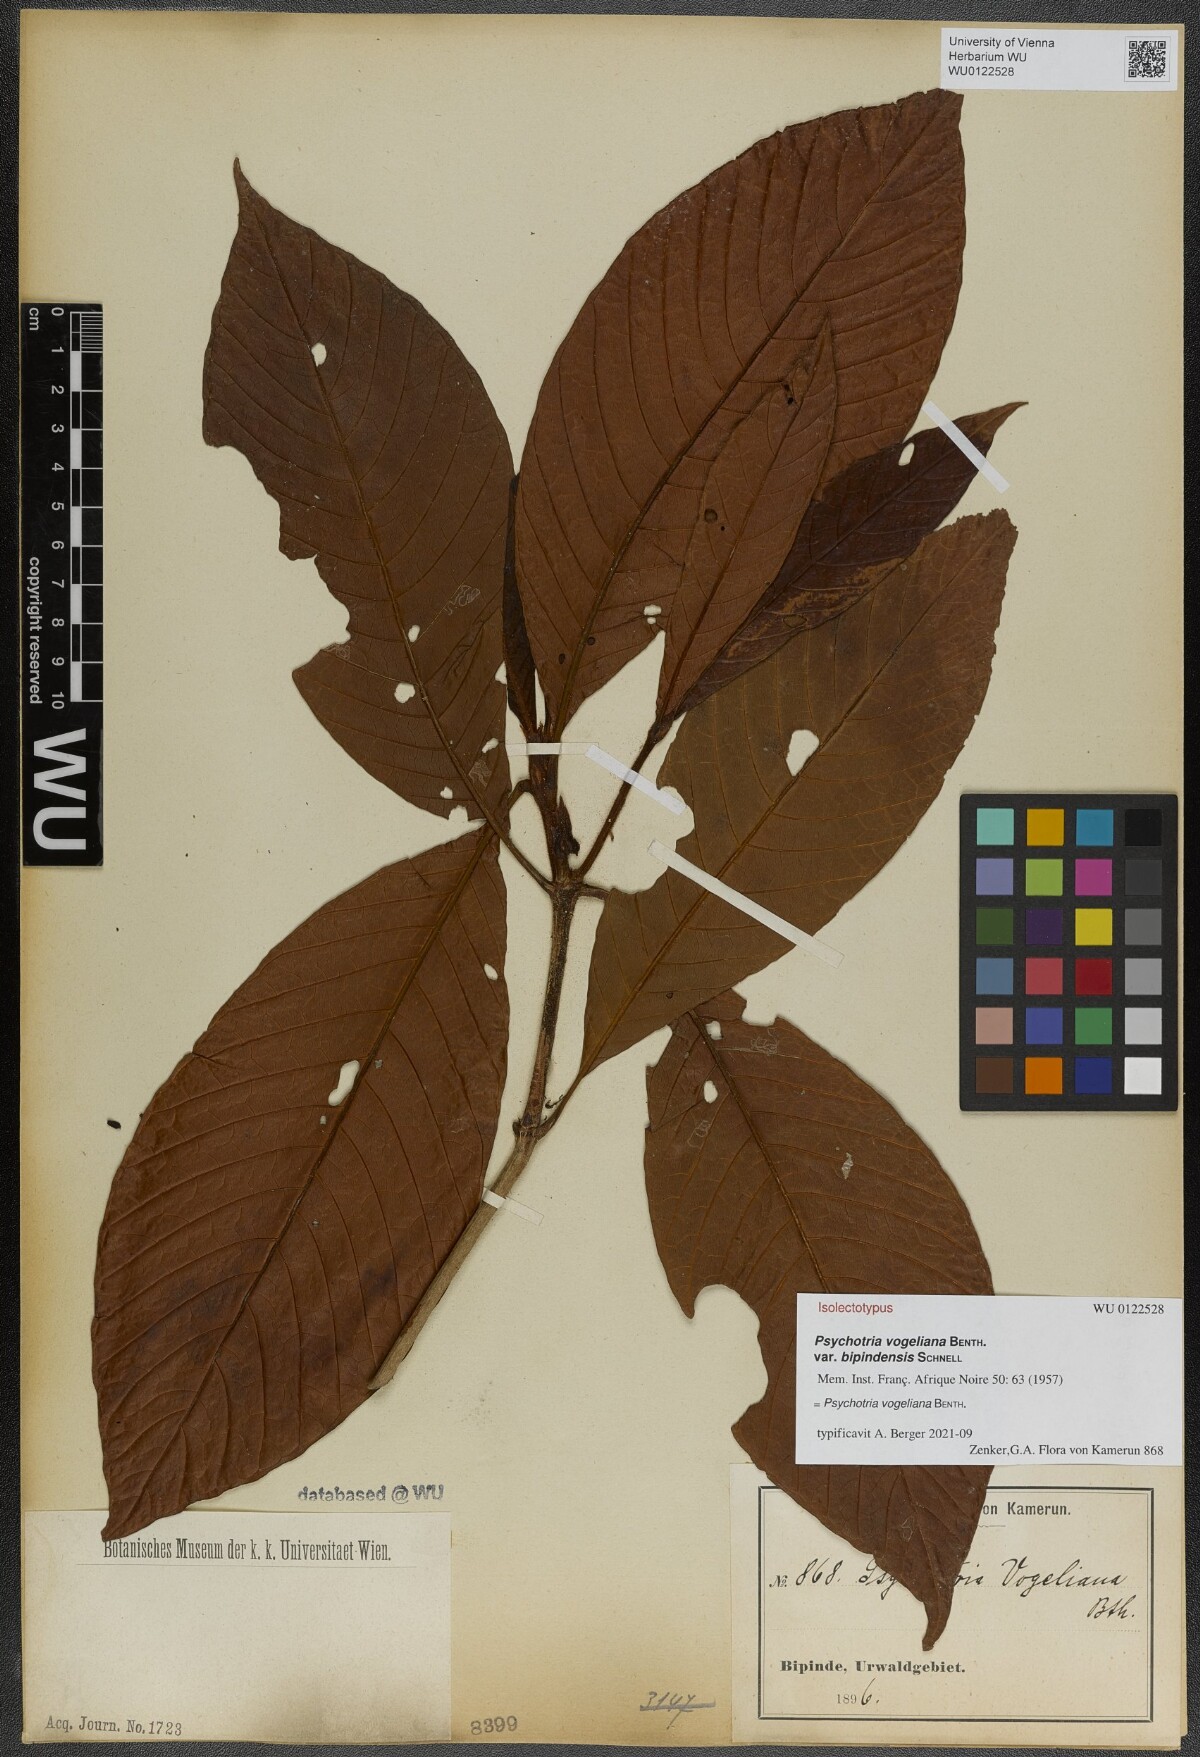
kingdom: Plantae
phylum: Tracheophyta
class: Magnoliopsida
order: Gentianales
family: Rubiaceae
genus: Psychotria
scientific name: Psychotria vogeliana
